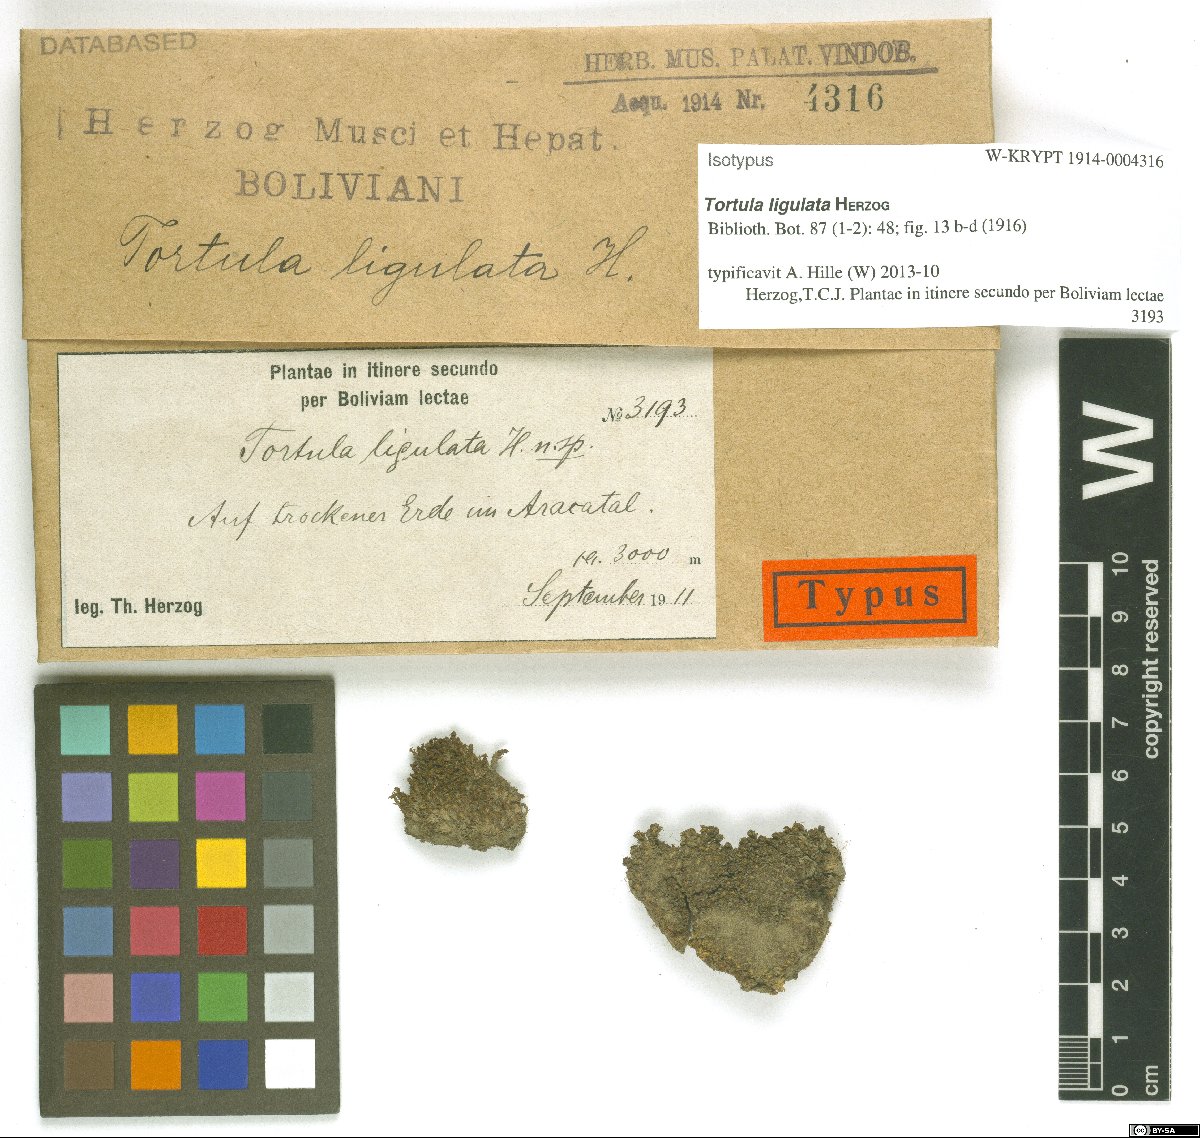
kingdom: Plantae
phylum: Bryophyta
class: Bryopsida
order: Pottiales
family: Pottiaceae
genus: Syntrichia
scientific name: Syntrichia fragilis
